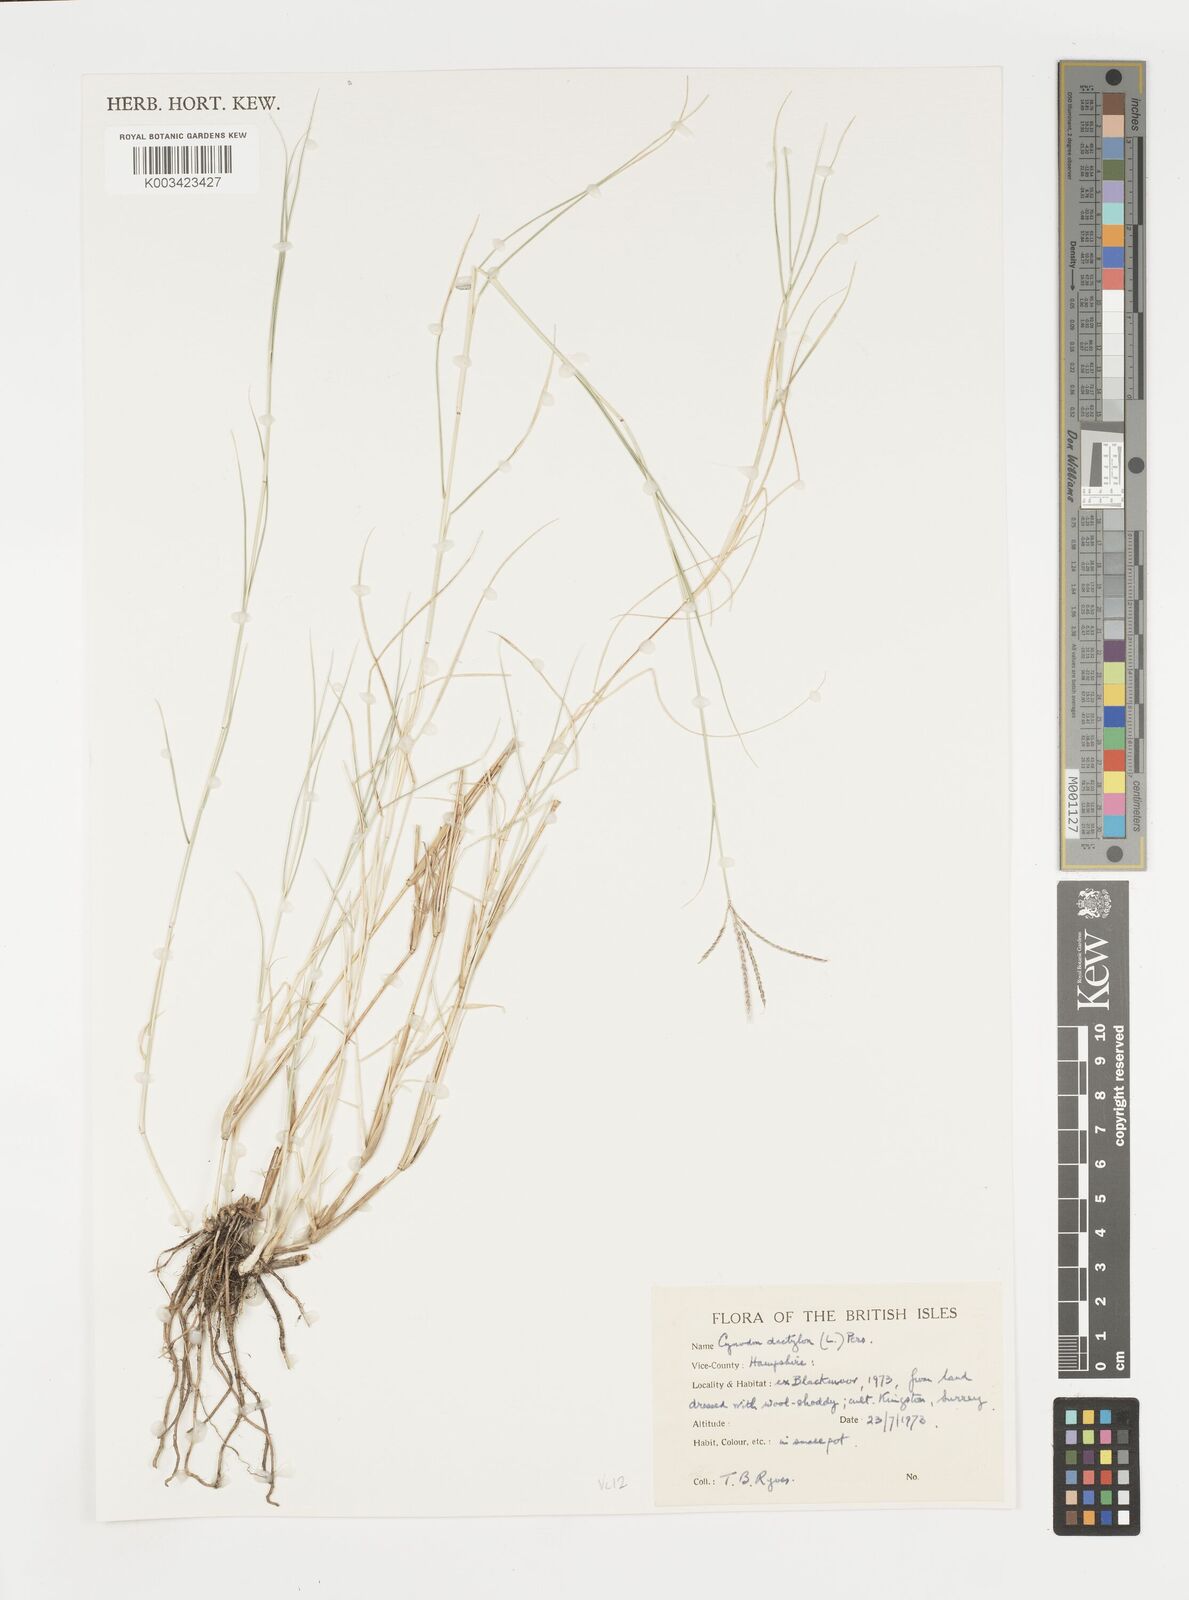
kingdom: Plantae
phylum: Tracheophyta
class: Liliopsida
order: Poales
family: Poaceae
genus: Cynodon
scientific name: Cynodon dactylon
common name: Bermuda grass
